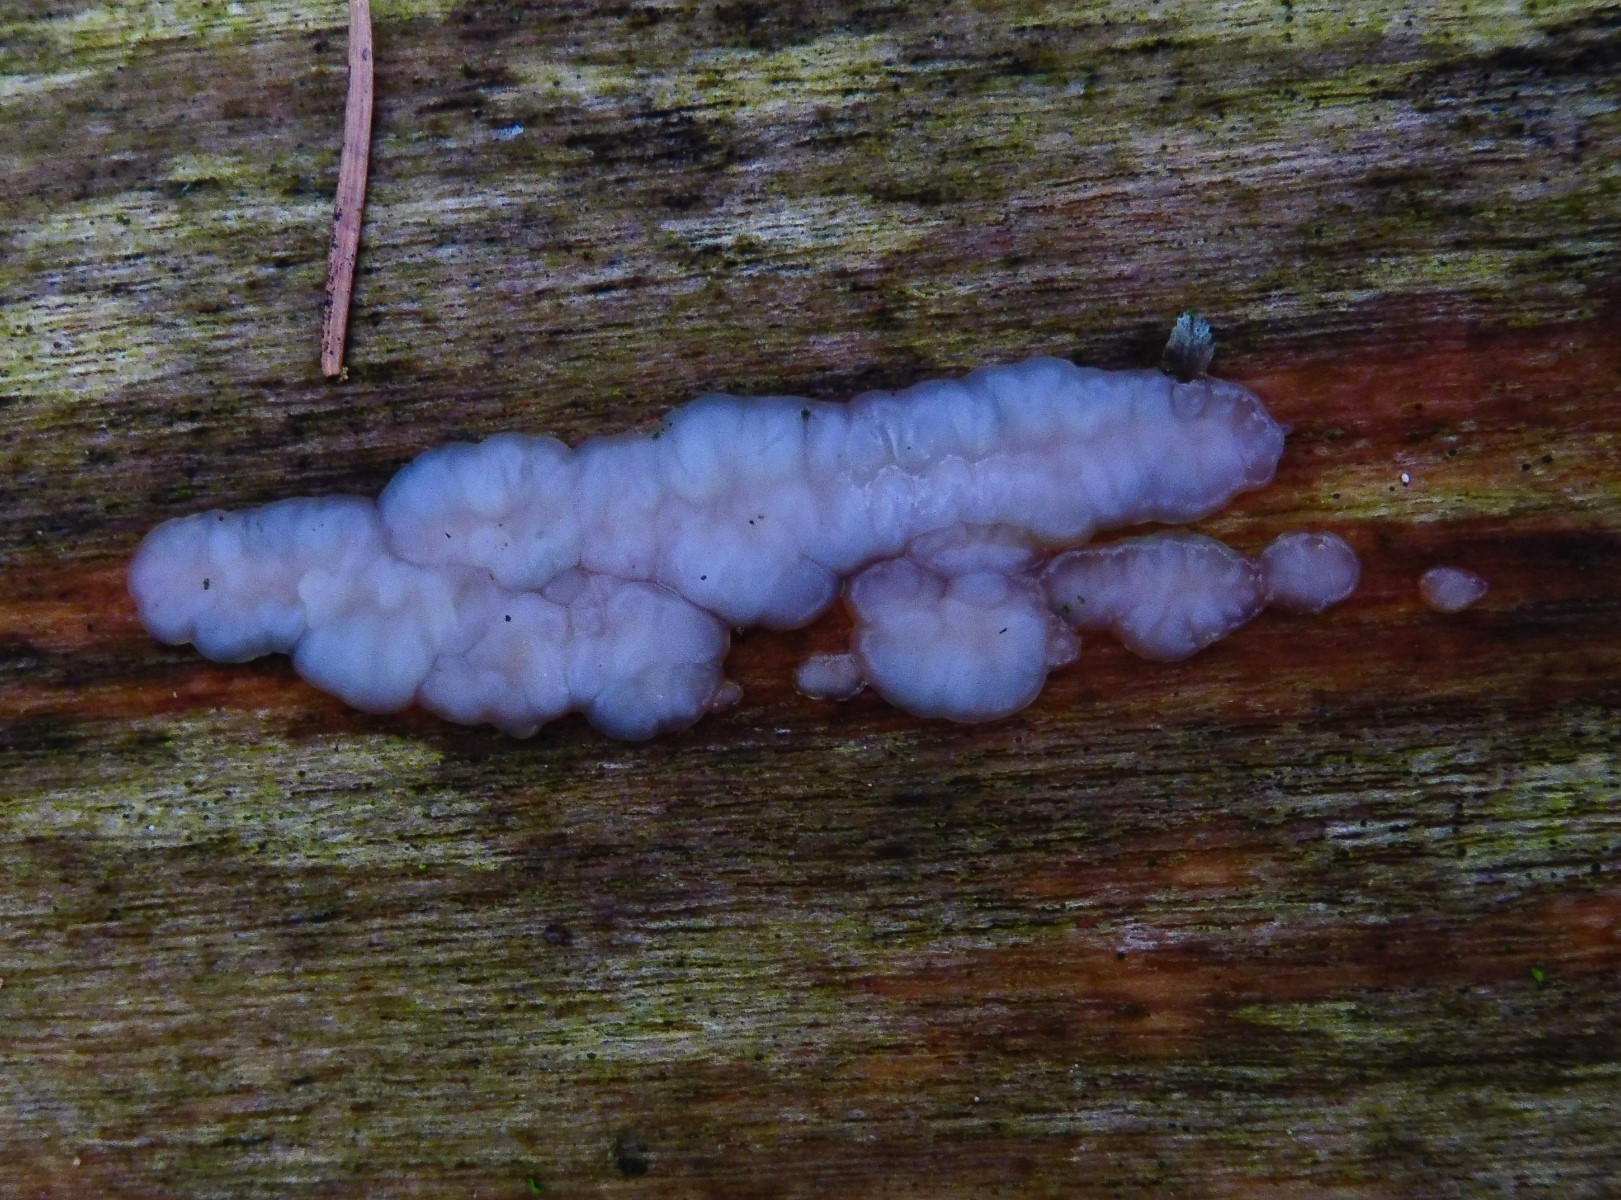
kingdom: Fungi
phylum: Basidiomycota
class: Agaricomycetes
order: Auriculariales
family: Auriculariaceae
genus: Exidia
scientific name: Exidia thuretiana
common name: hvidlig bævretop
